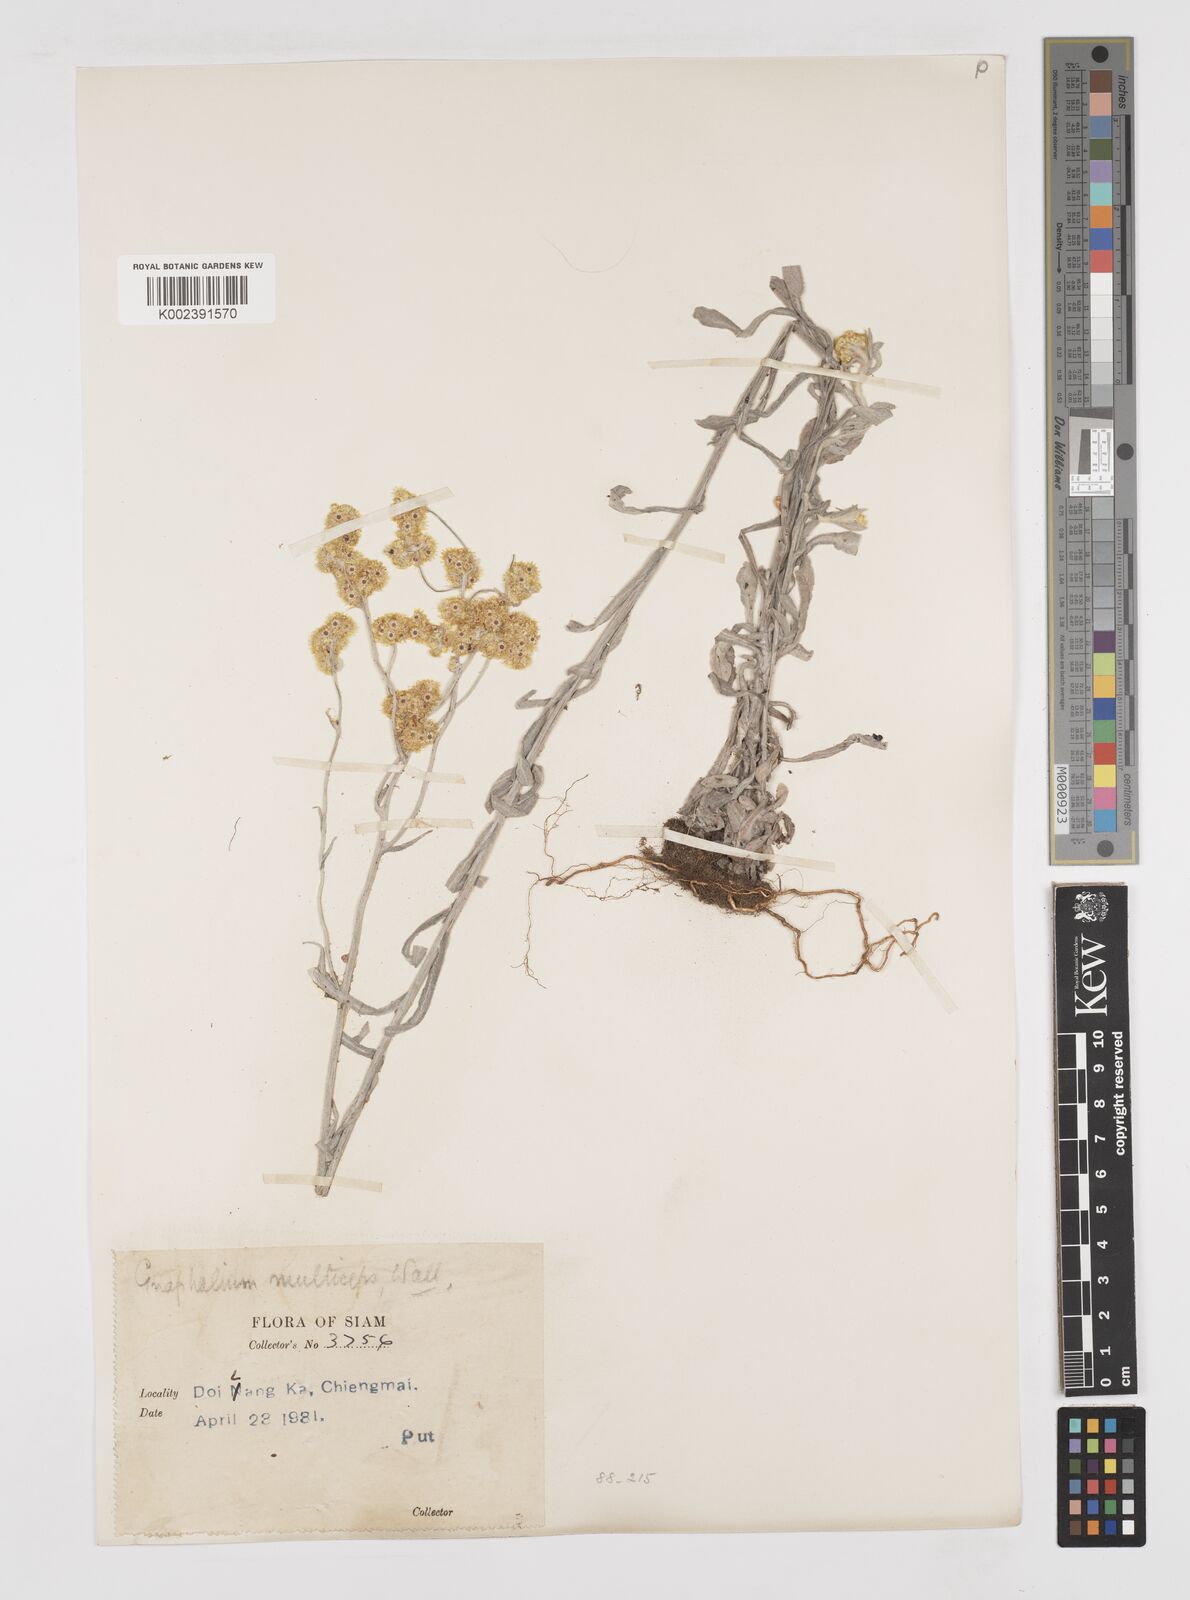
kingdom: Plantae
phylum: Tracheophyta
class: Magnoliopsida
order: Asterales
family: Asteraceae
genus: Pseudognaphalium
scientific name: Pseudognaphalium affine
